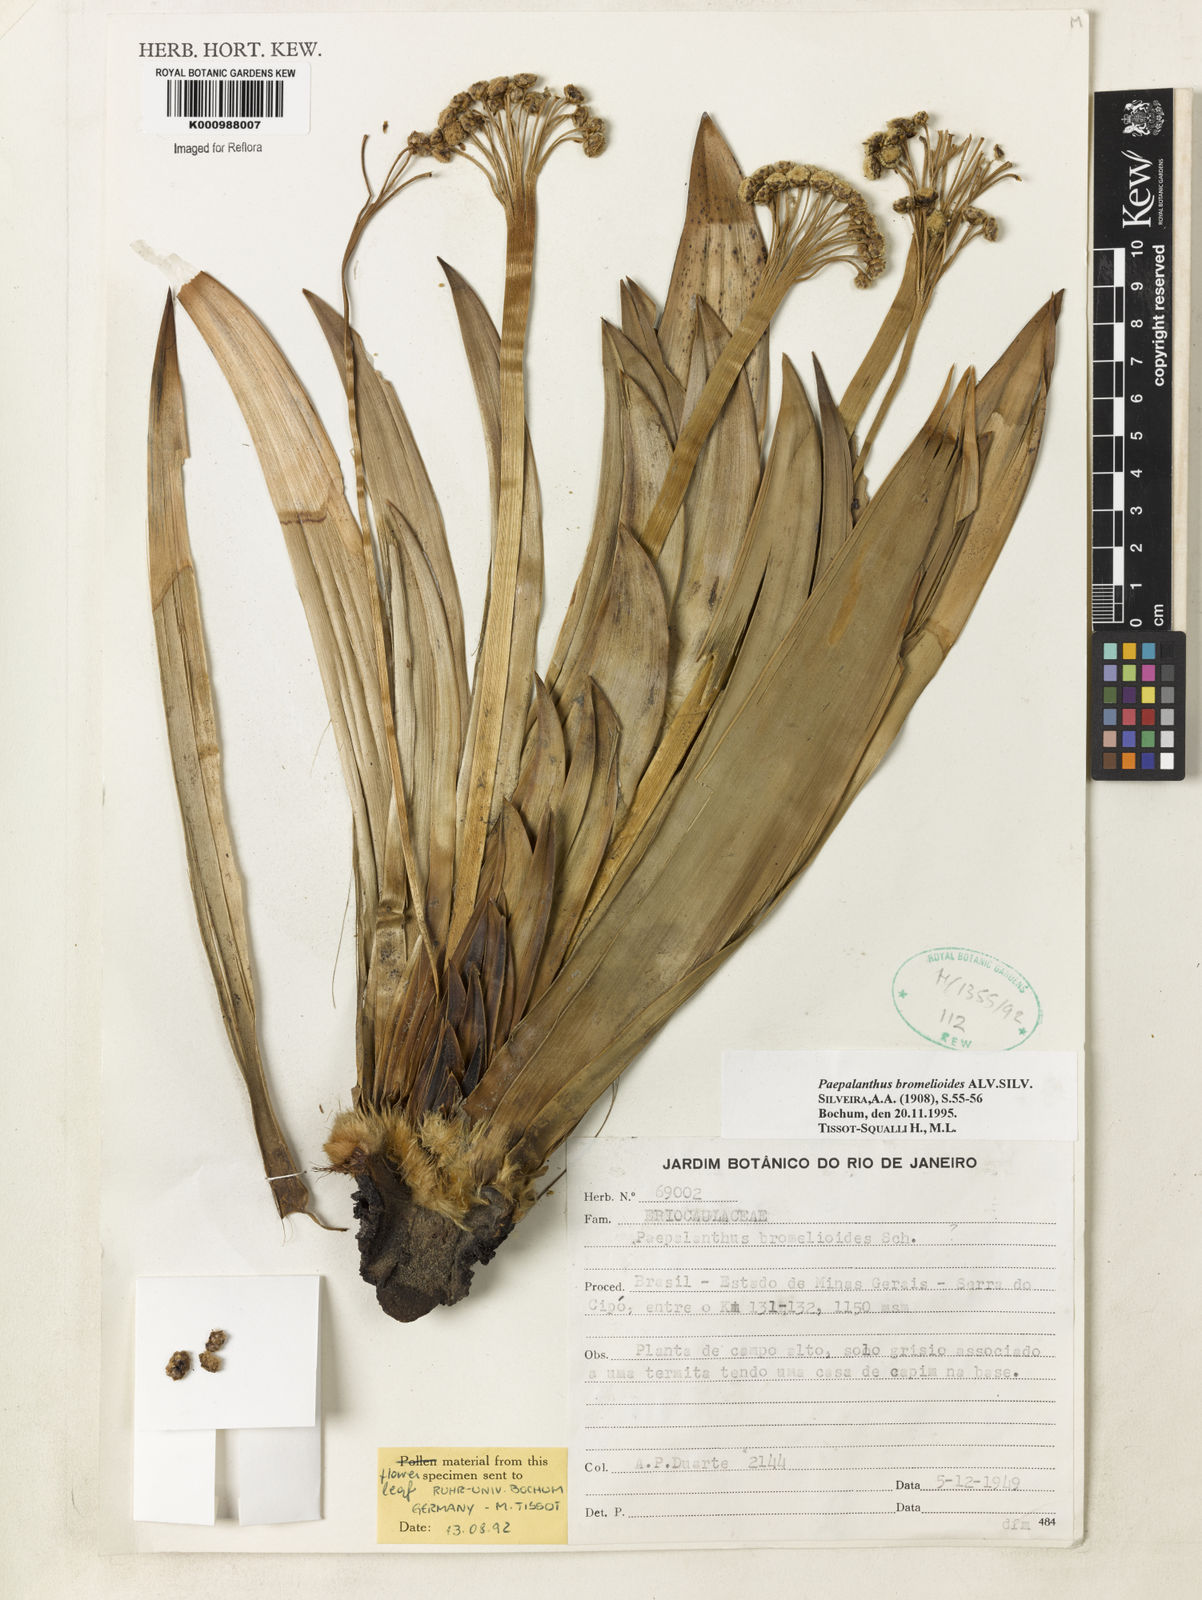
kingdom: Plantae
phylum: Tracheophyta
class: Liliopsida
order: Poales
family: Eriocaulaceae
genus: Paepalanthus
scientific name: Paepalanthus bromelioides
